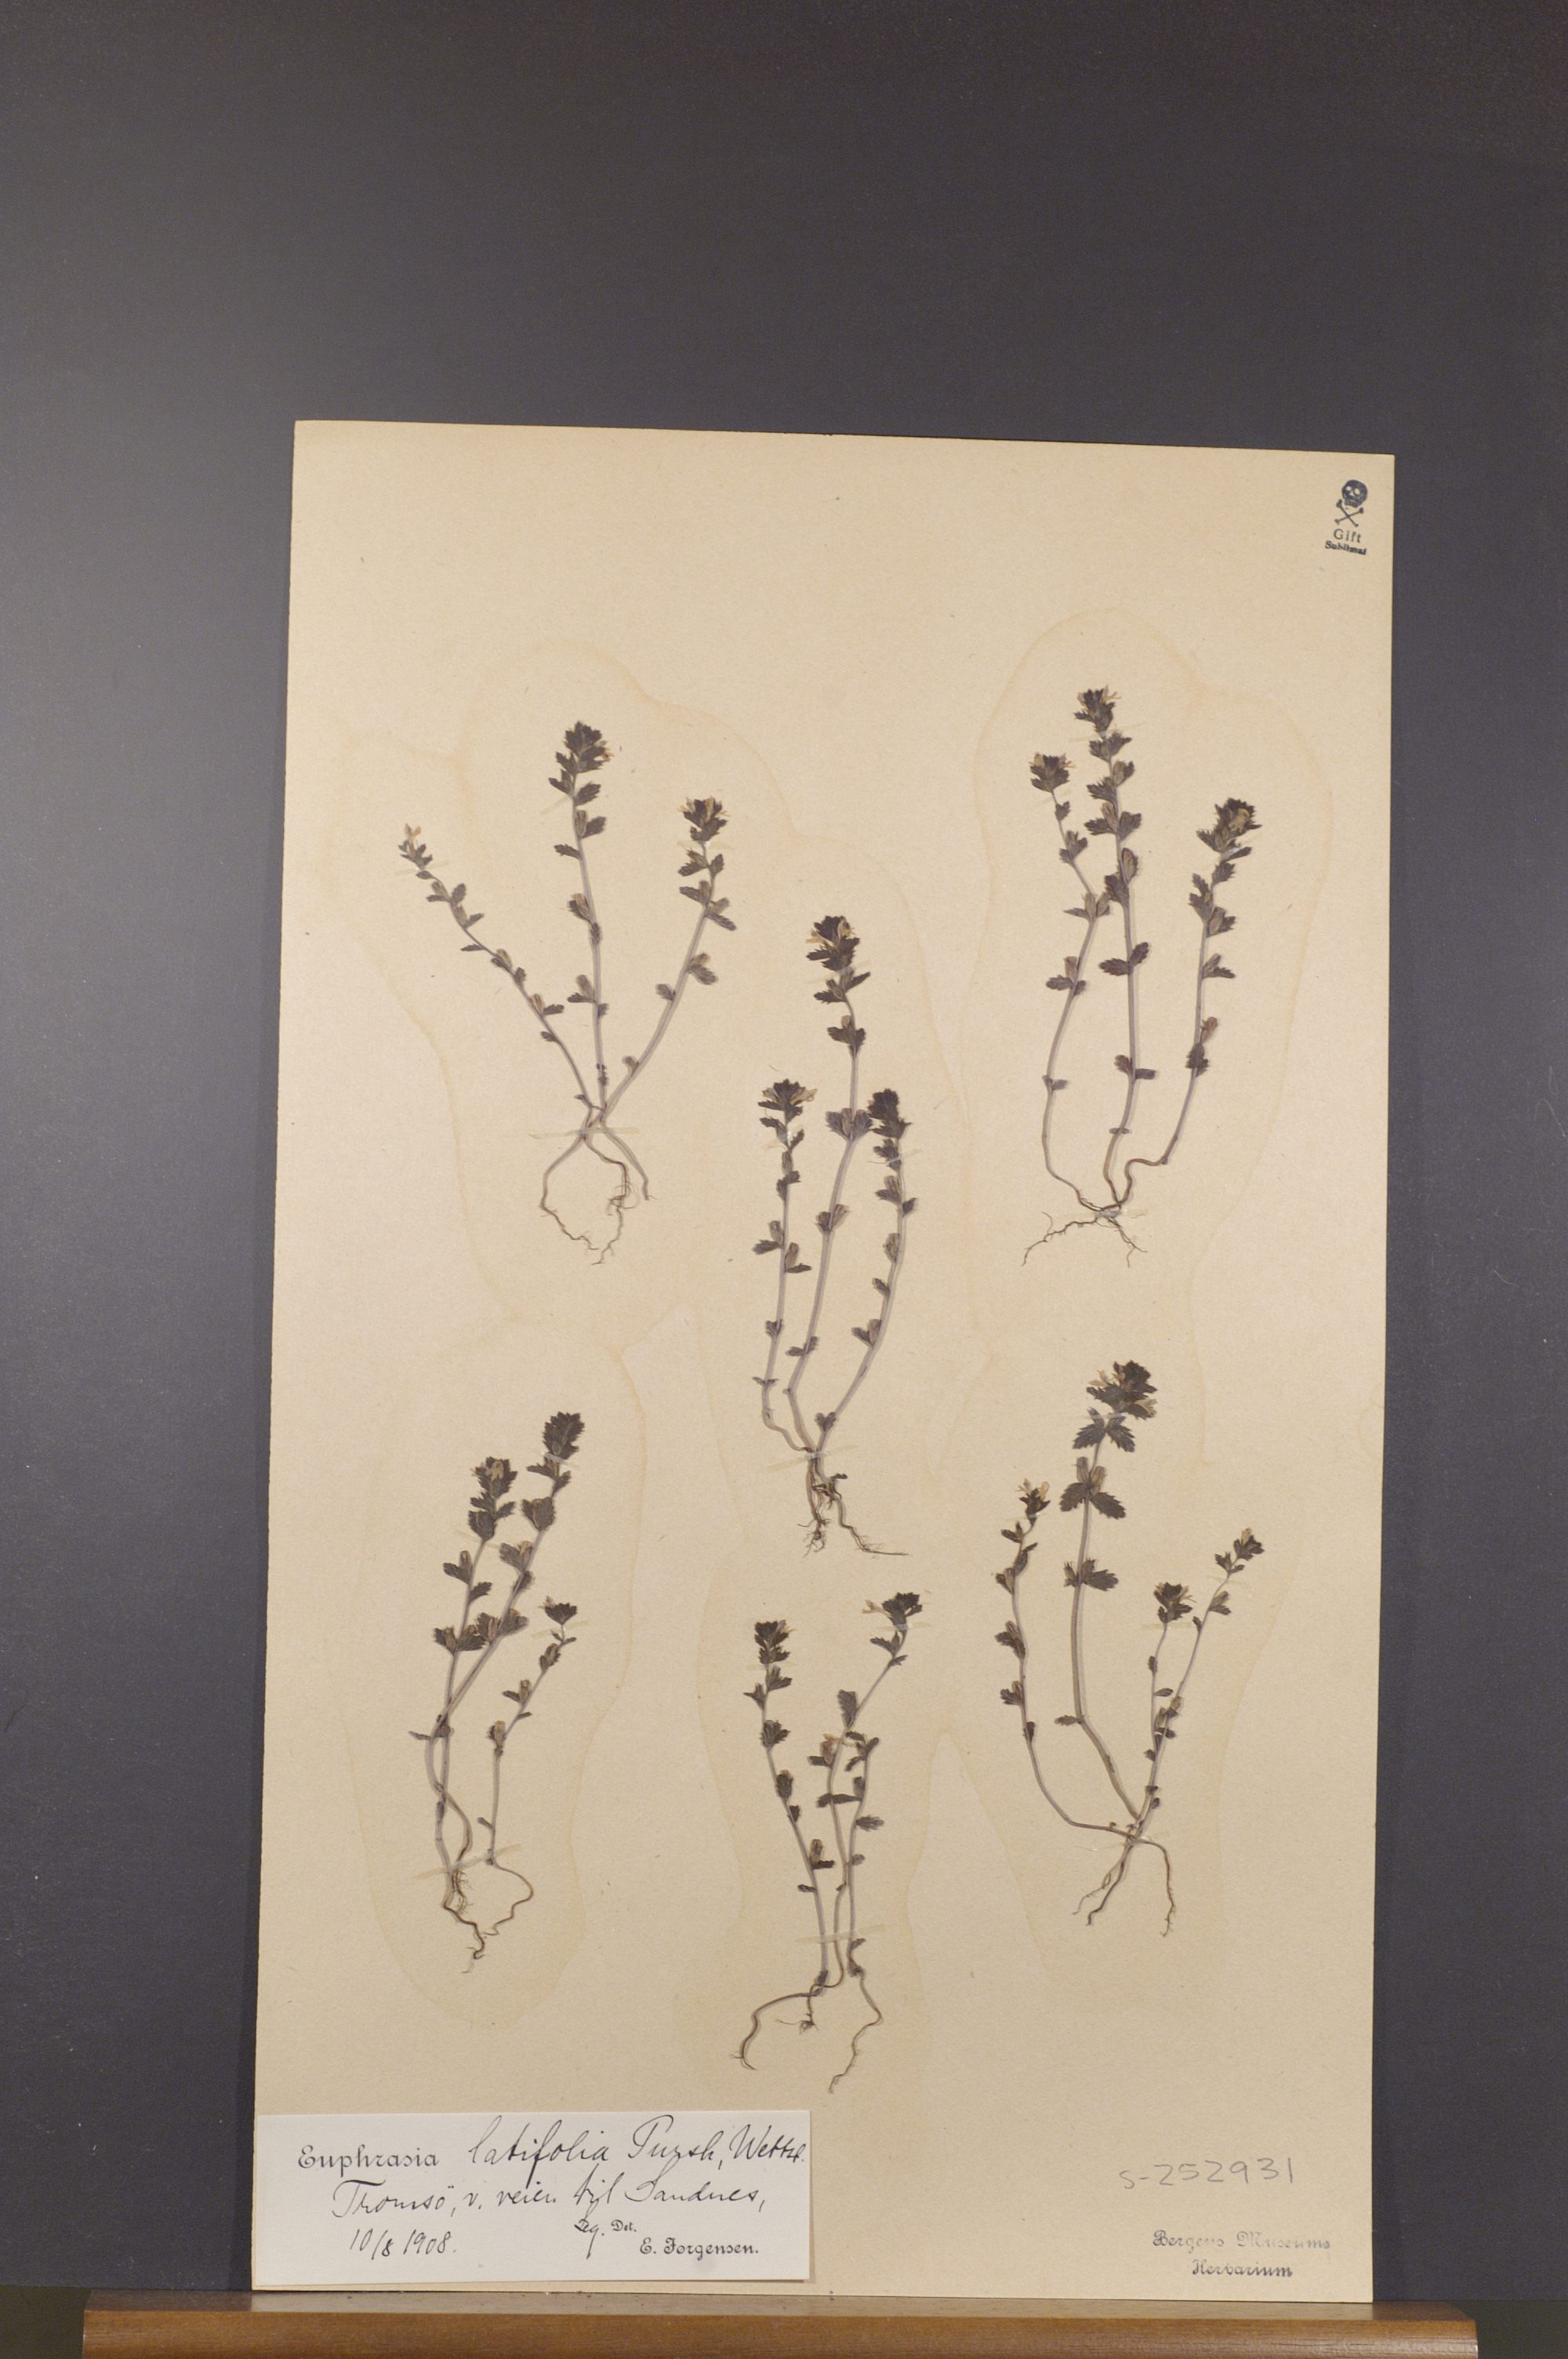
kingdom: Plantae
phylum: Tracheophyta
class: Magnoliopsida
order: Lamiales
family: Orobanchaceae
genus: Euphrasia
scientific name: Euphrasia wettsteinii
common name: Wettstein's eyebright
